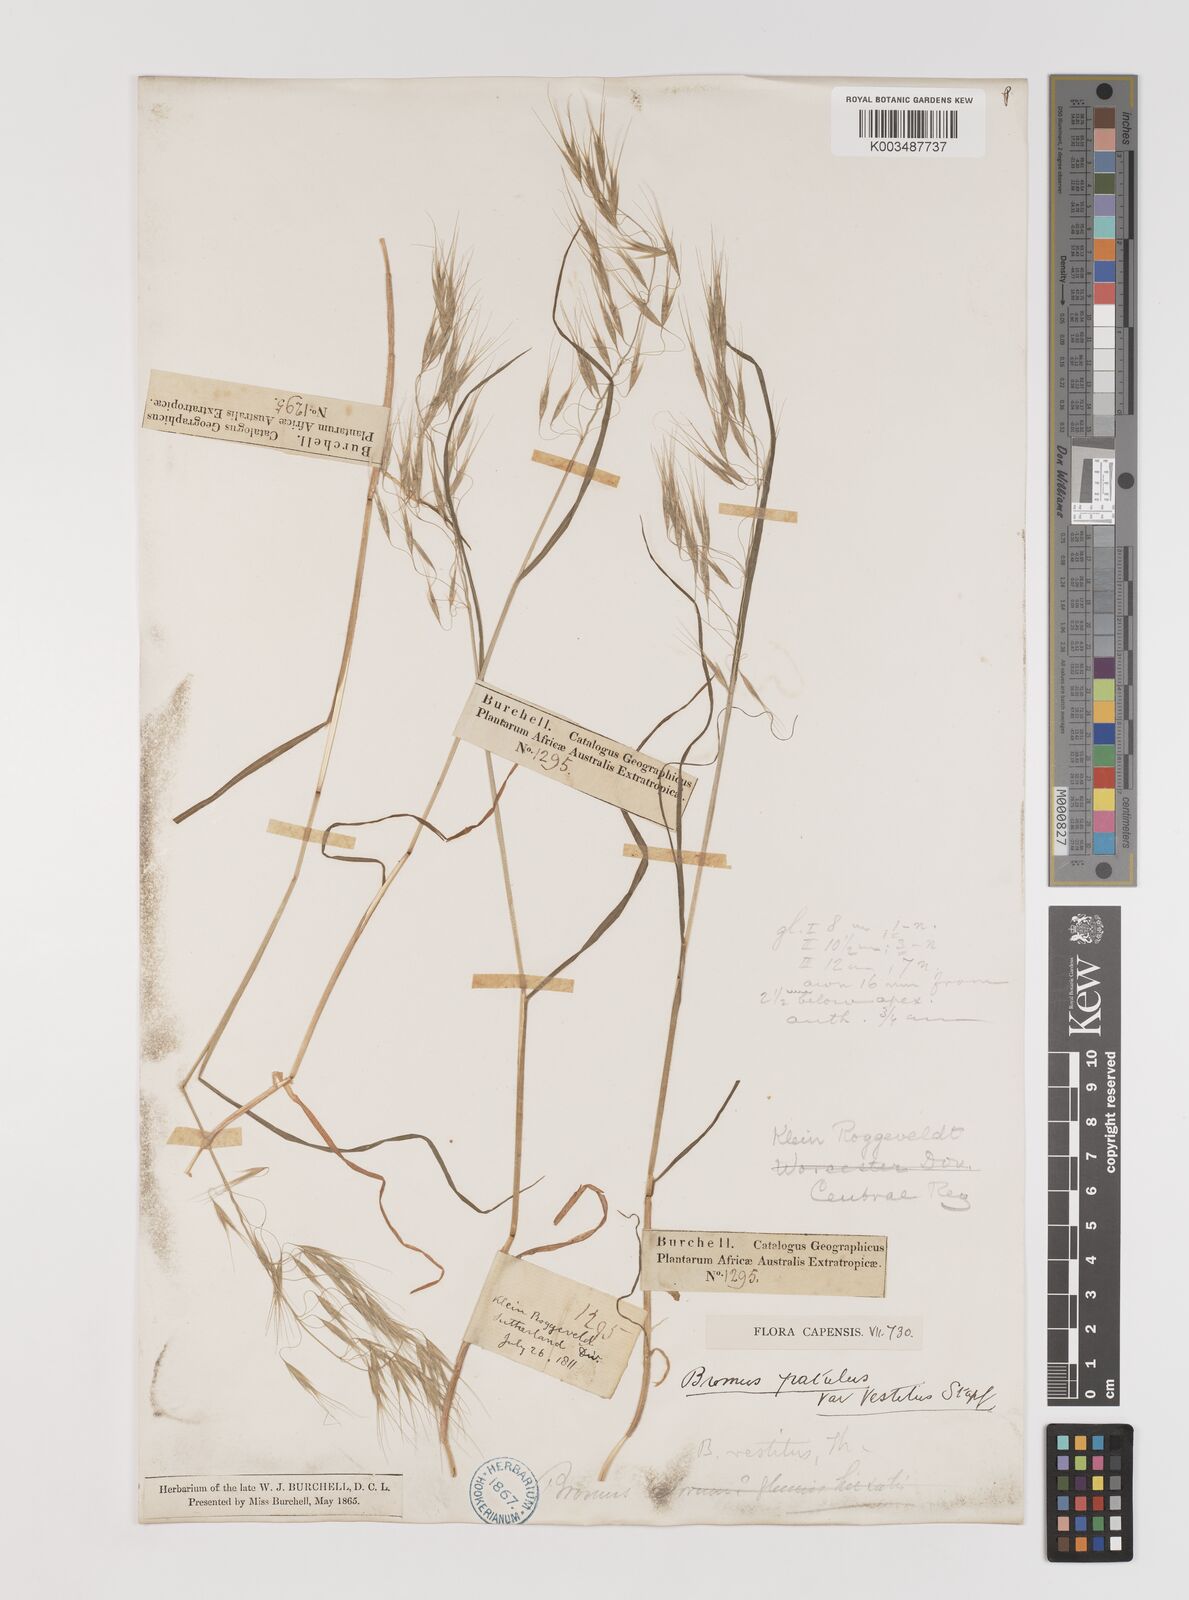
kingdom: Plantae
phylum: Tracheophyta
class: Liliopsida
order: Poales
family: Poaceae
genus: Bromus
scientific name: Bromus pectinatus
